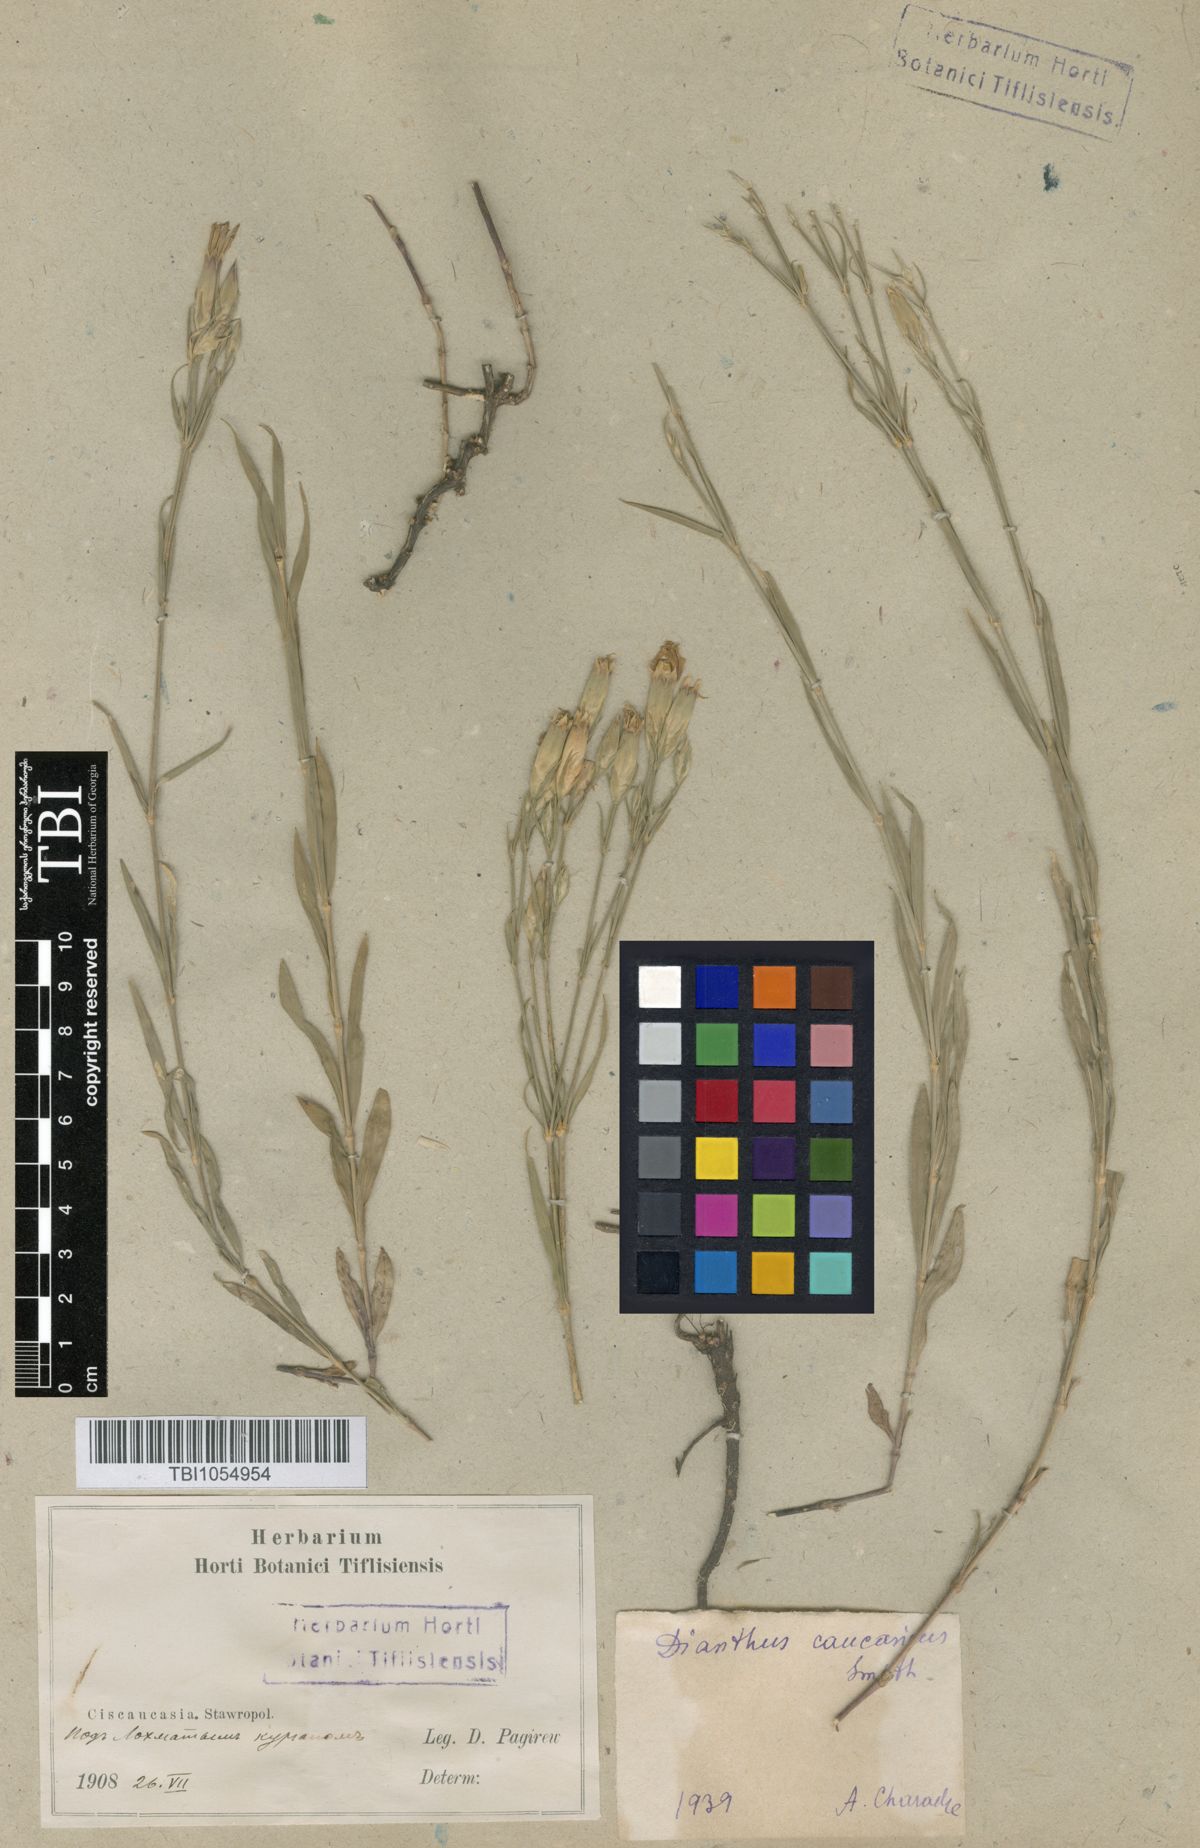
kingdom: Plantae
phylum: Tracheophyta
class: Magnoliopsida
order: Caryophyllales
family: Caryophyllaceae
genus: Dianthus
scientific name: Dianthus caucaseus
